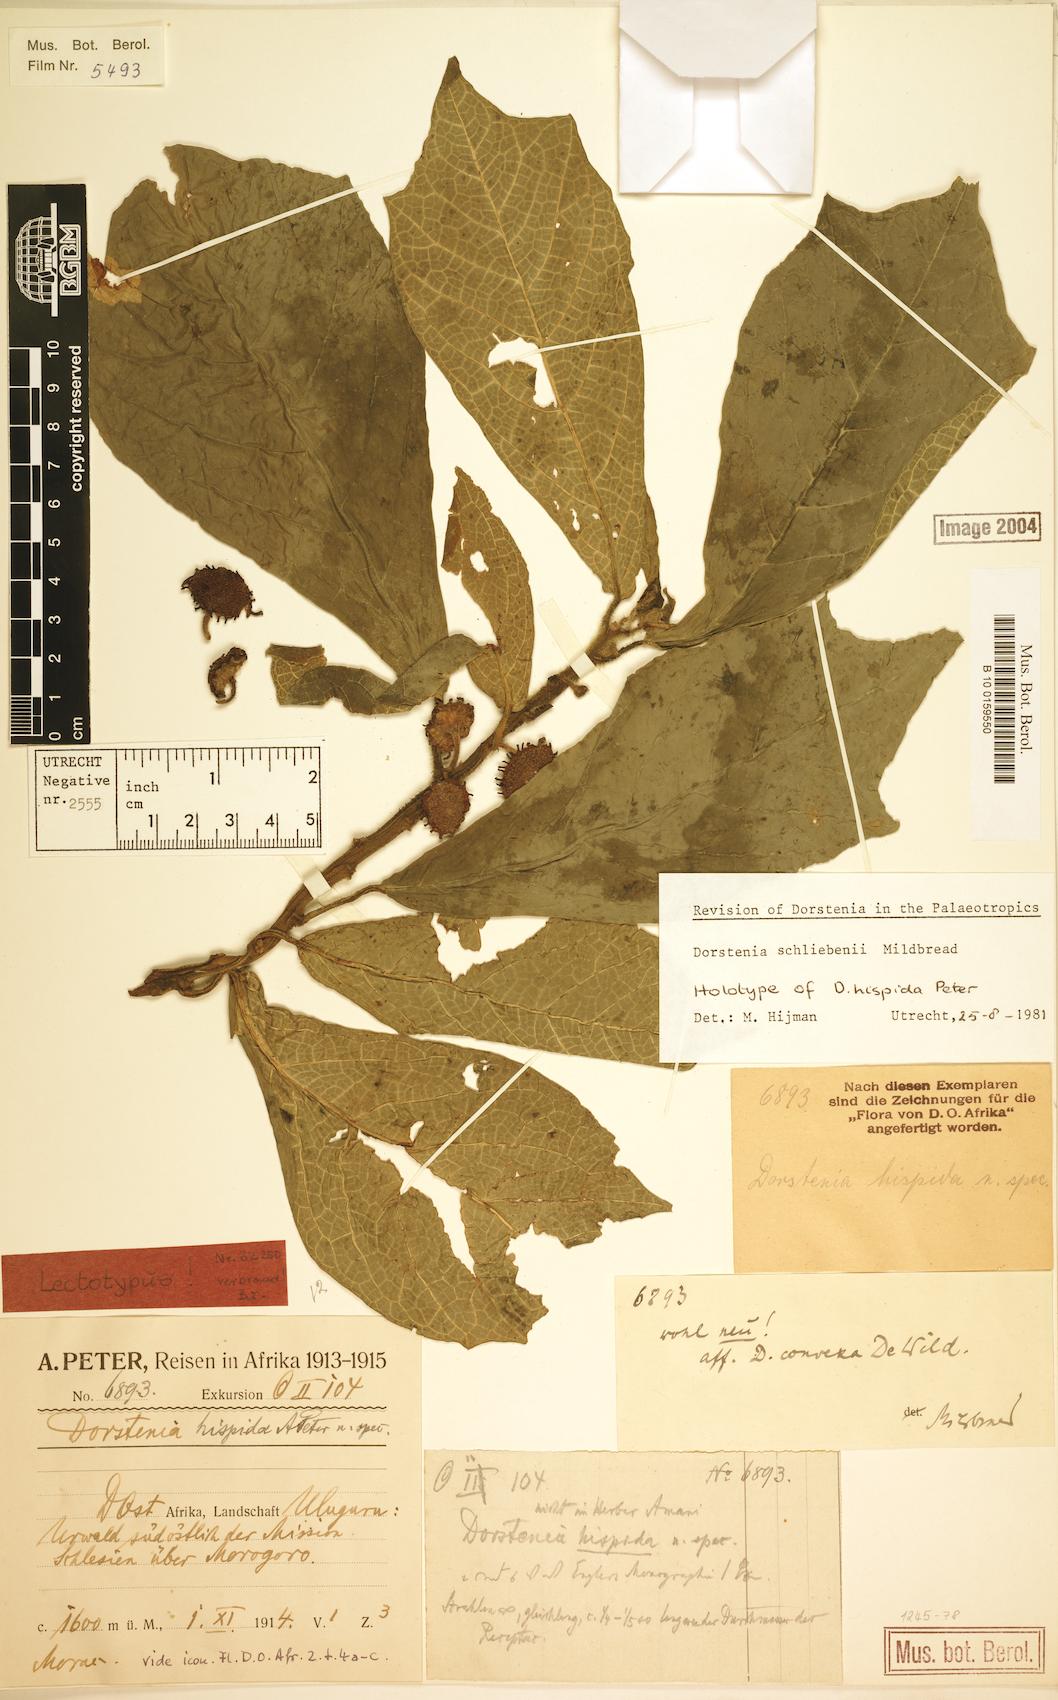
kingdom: Plantae
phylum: Tracheophyta
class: Magnoliopsida
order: Rosales
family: Moraceae
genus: Dorstenia
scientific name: Dorstenia schliebenii
